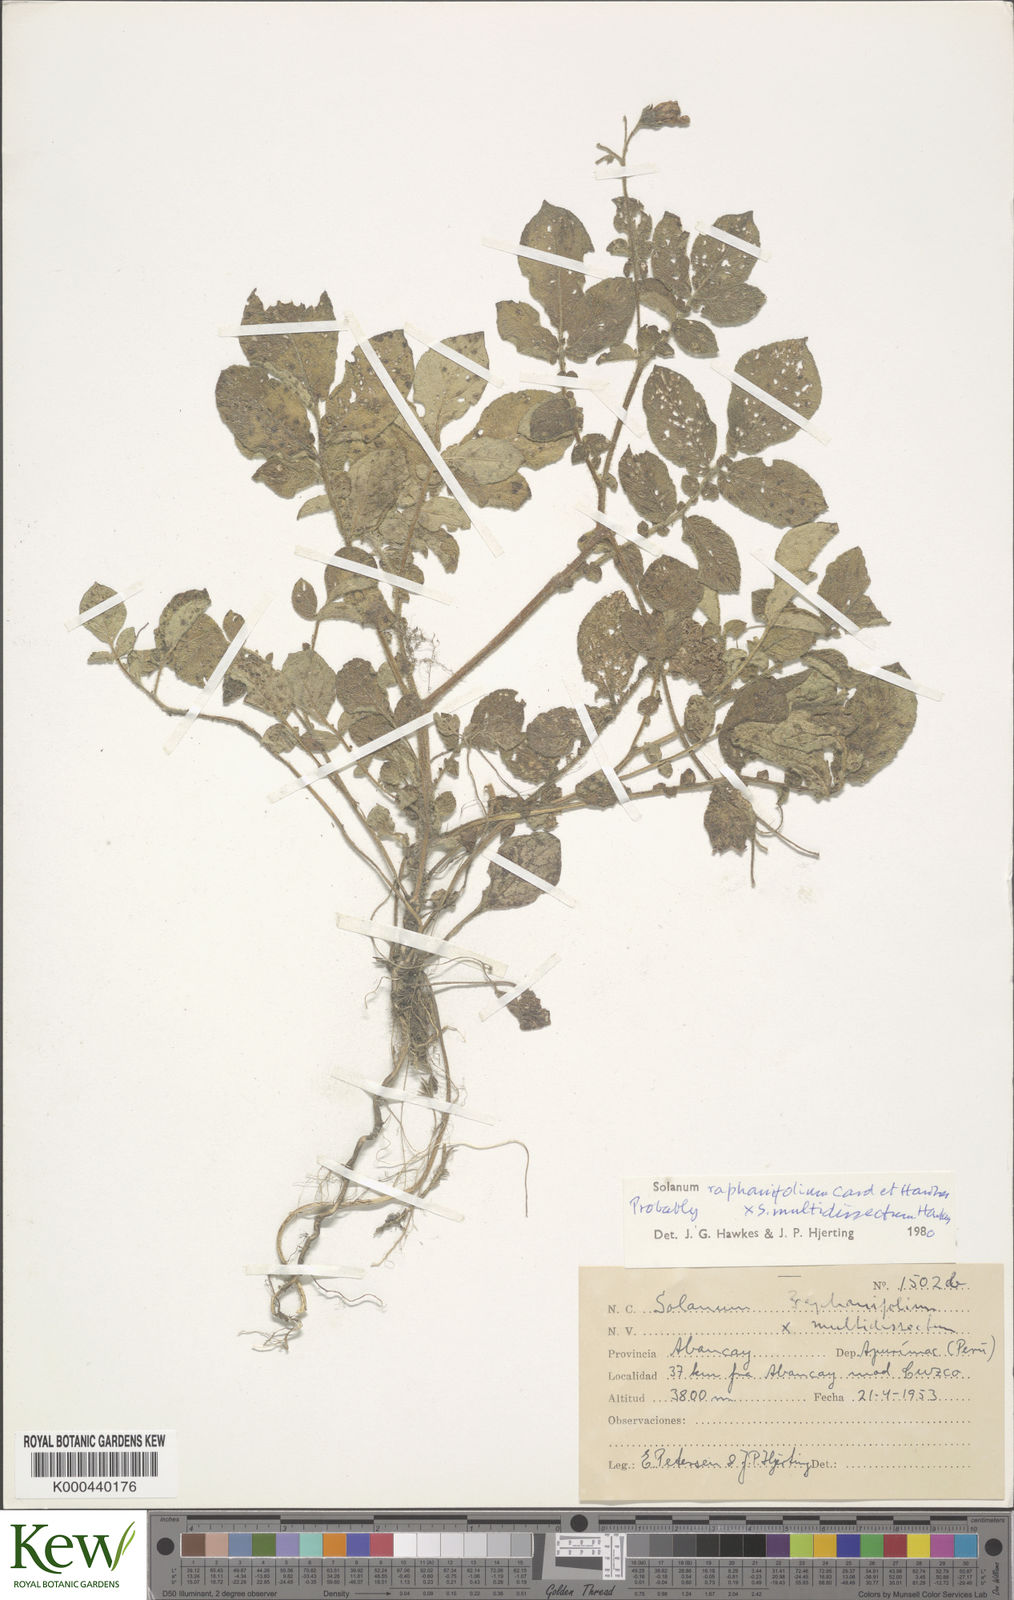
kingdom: Plantae
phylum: Tracheophyta
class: Magnoliopsida
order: Solanales
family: Solanaceae
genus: Solanum
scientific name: Solanum
